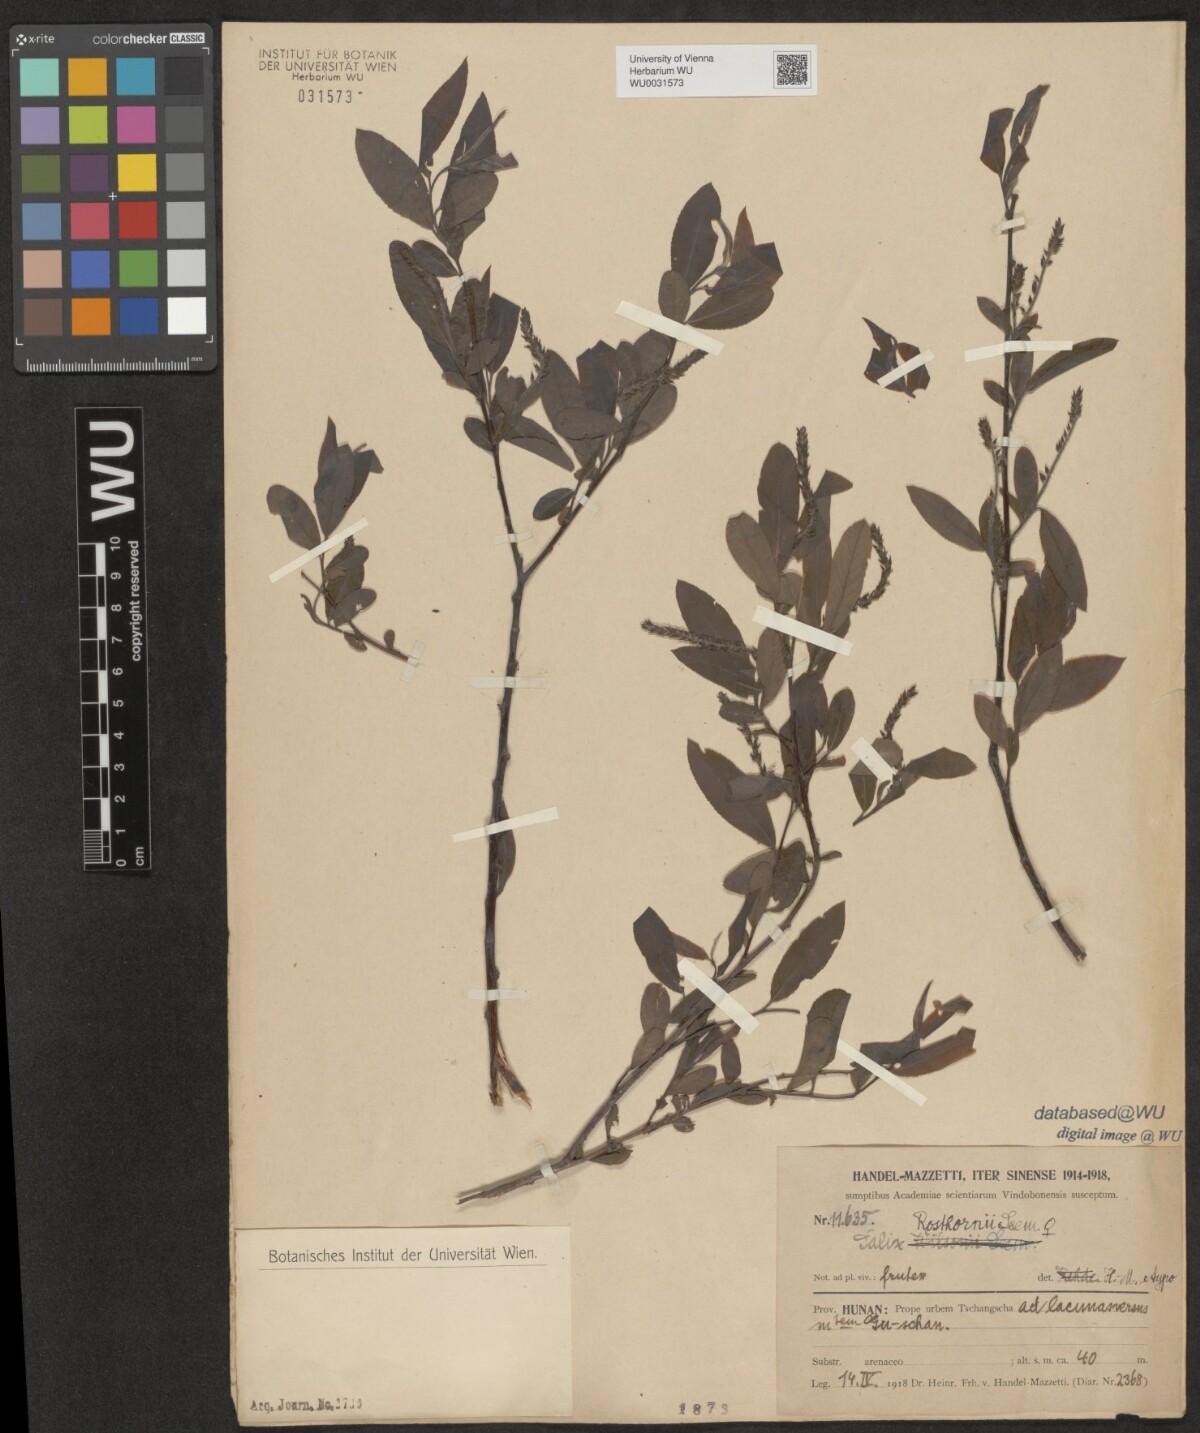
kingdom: Plantae
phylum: Tracheophyta
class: Magnoliopsida
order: Malpighiales
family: Salicaceae
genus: Salix
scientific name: Salix rosthornii
